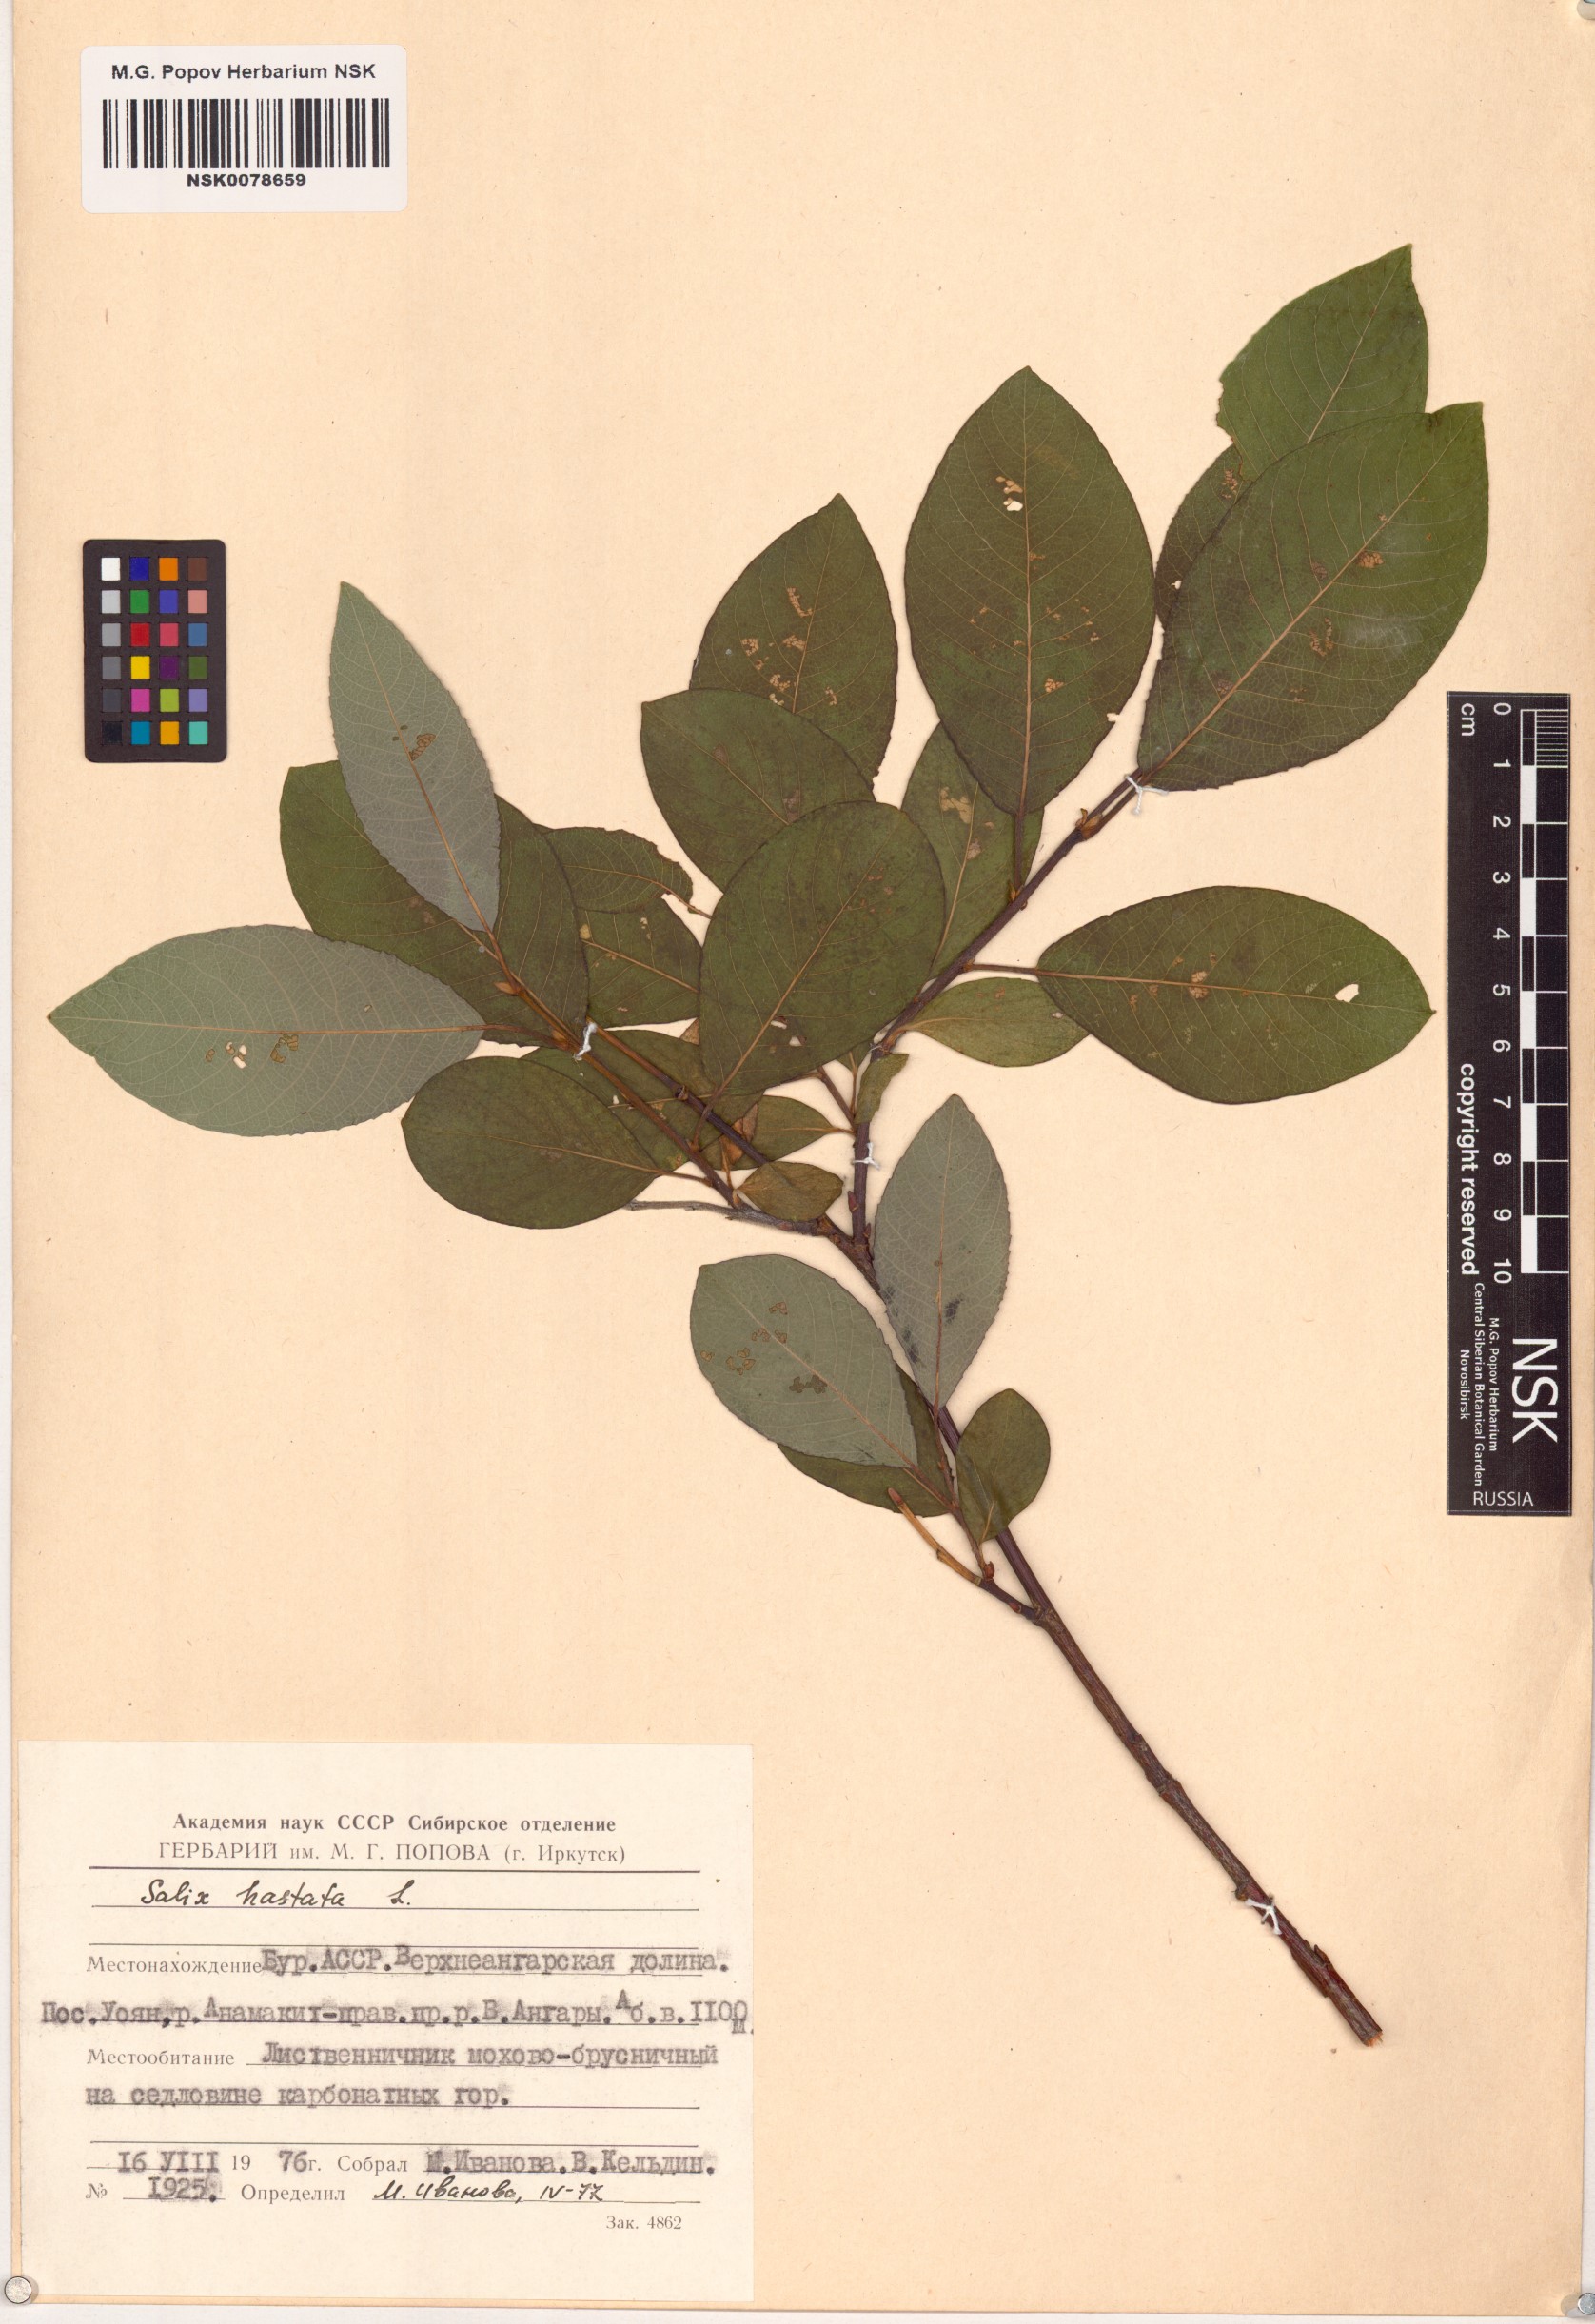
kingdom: Plantae
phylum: Tracheophyta
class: Magnoliopsida
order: Malpighiales
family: Salicaceae
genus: Salix
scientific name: Salix hastata
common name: Halberd willow
